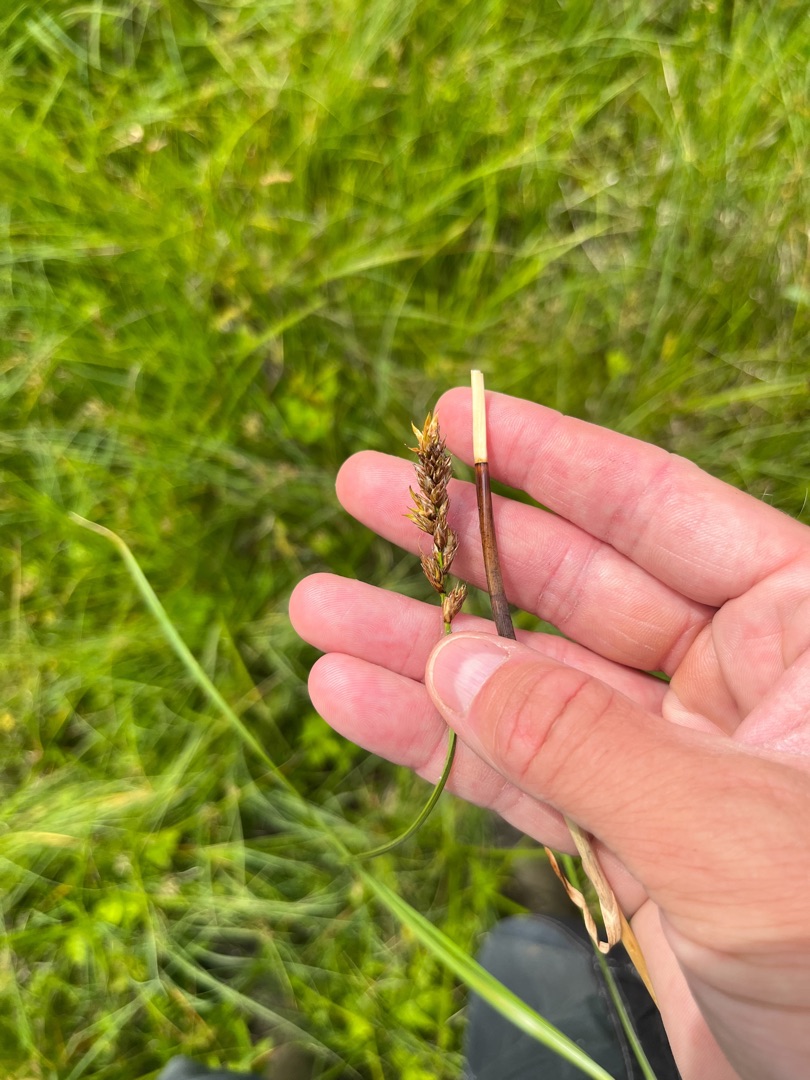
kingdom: Plantae
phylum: Tracheophyta
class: Liliopsida
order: Poales
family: Cyperaceae
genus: Carex
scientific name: Carex disticha
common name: Toradet star
